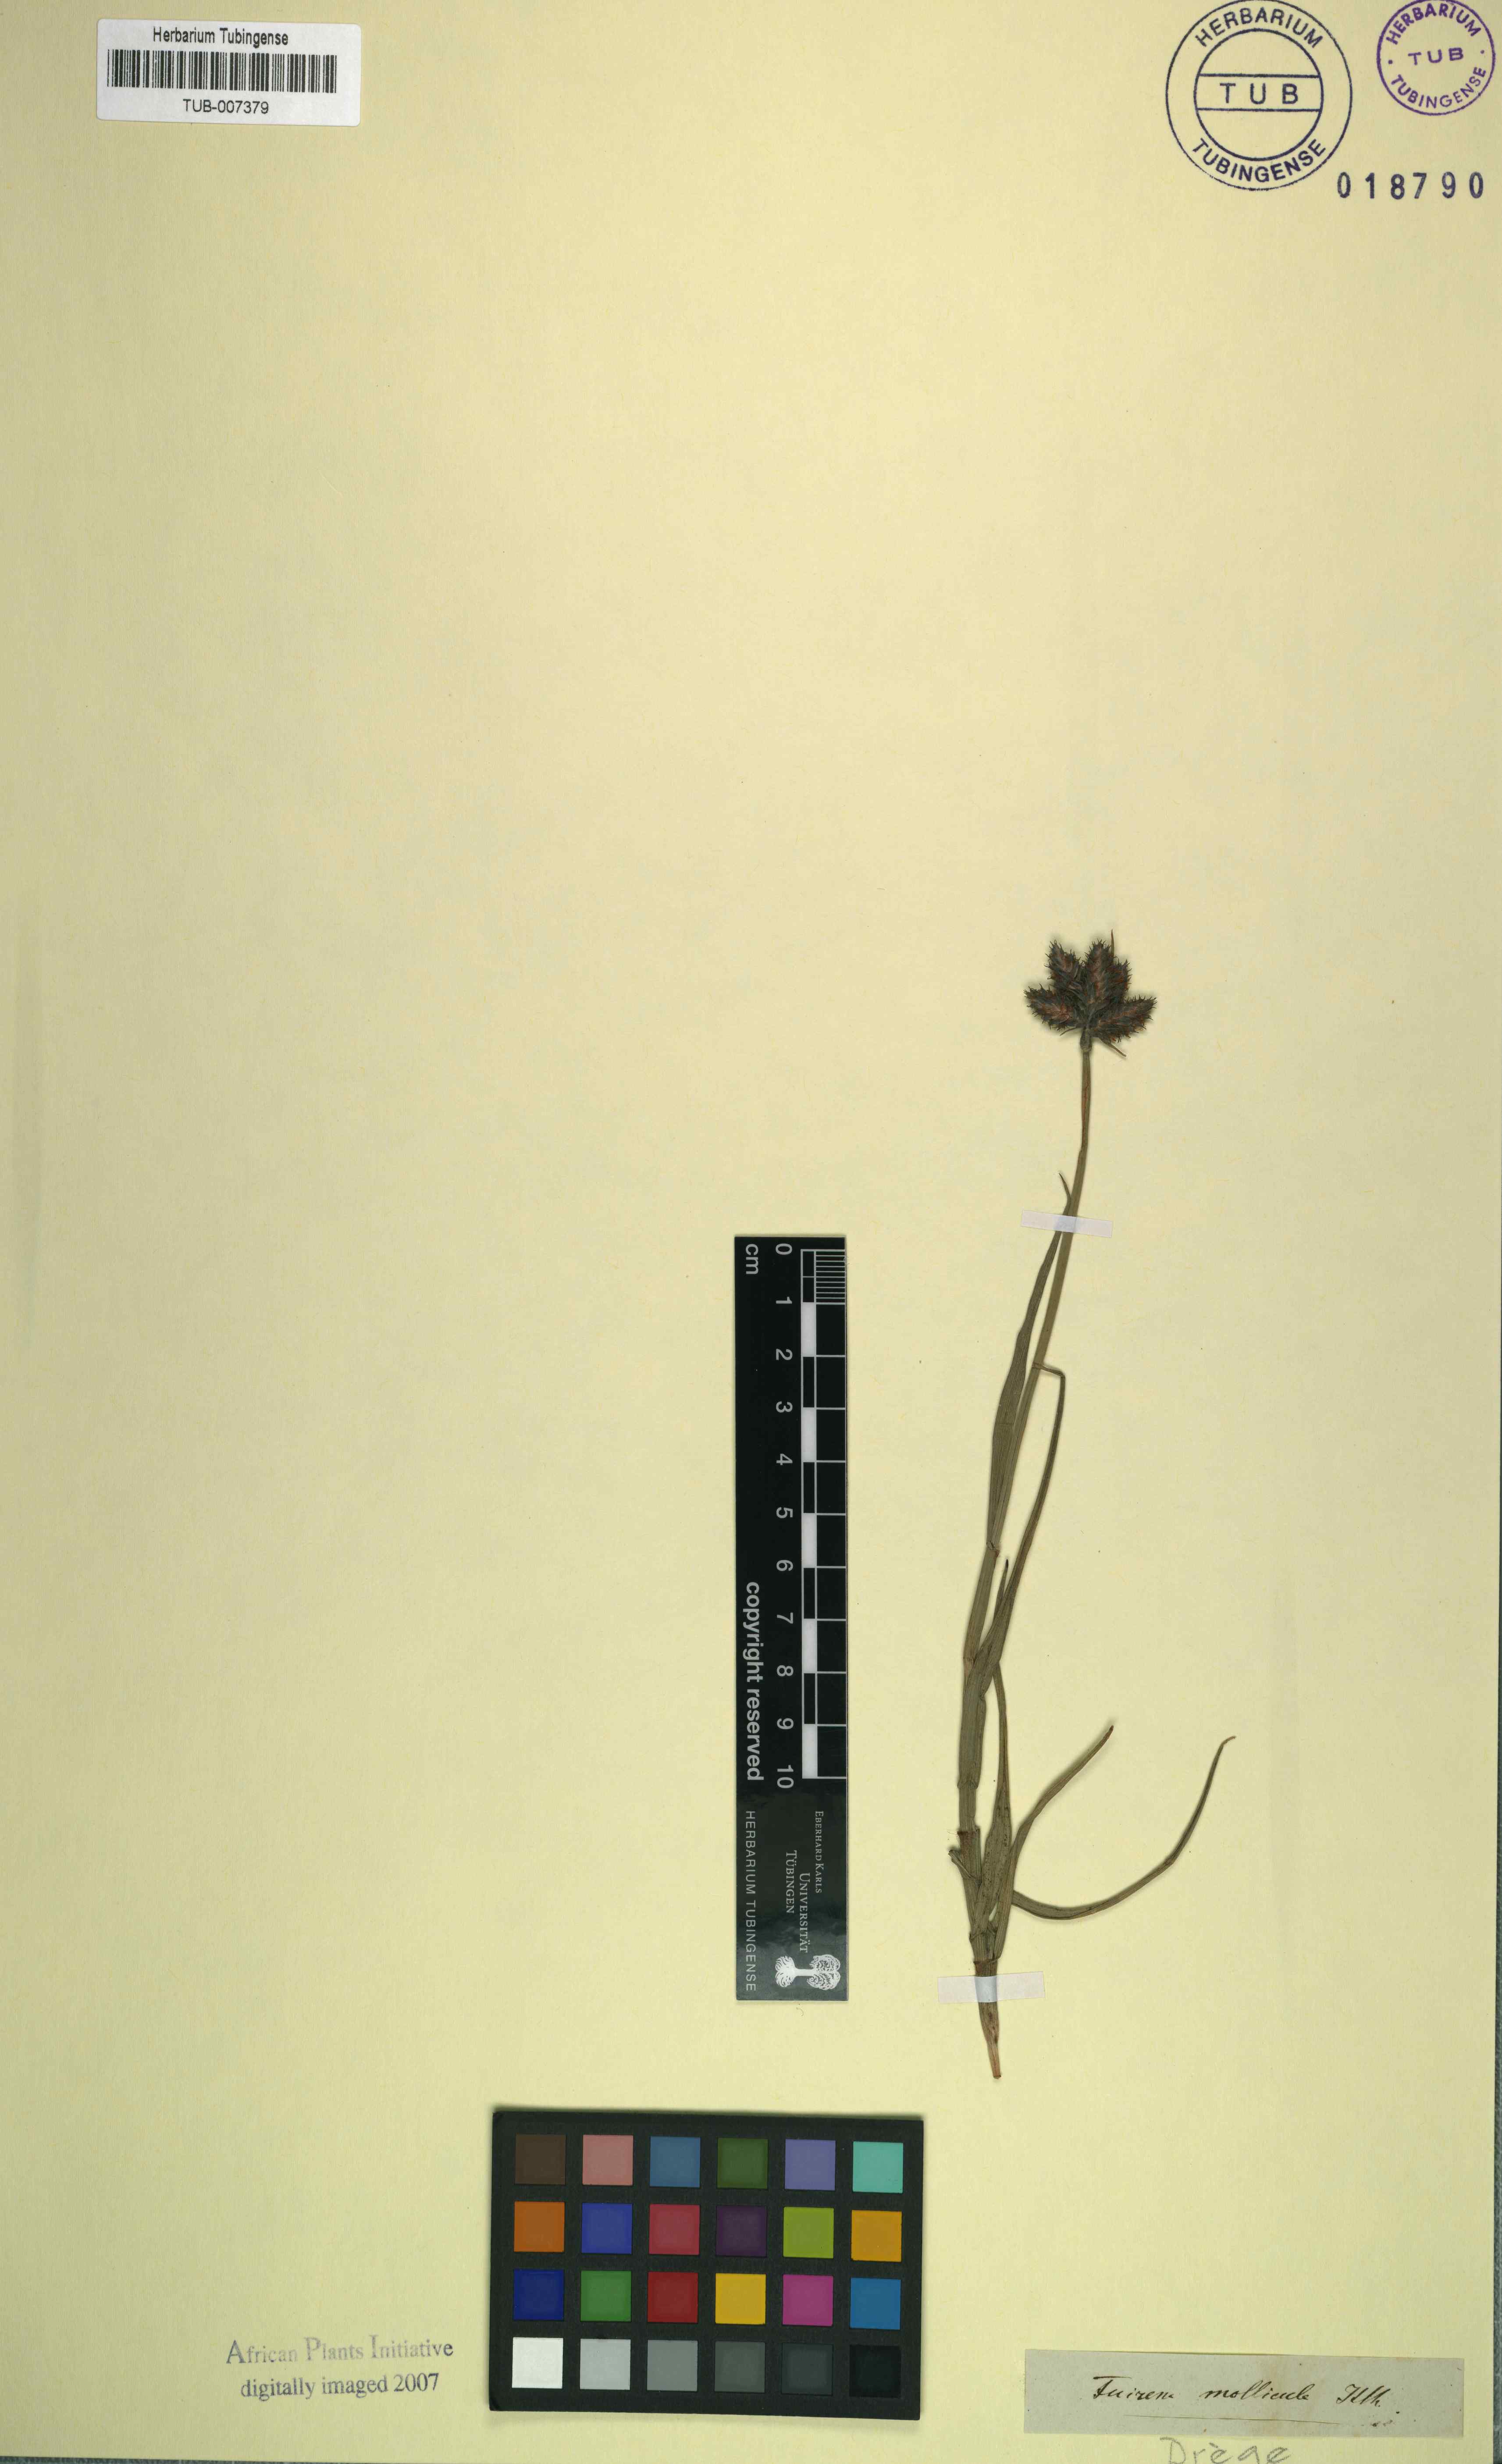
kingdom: Plantae
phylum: Tracheophyta
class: Liliopsida
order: Poales
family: Cyperaceae
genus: Fuirena
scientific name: Fuirena ecklonii
